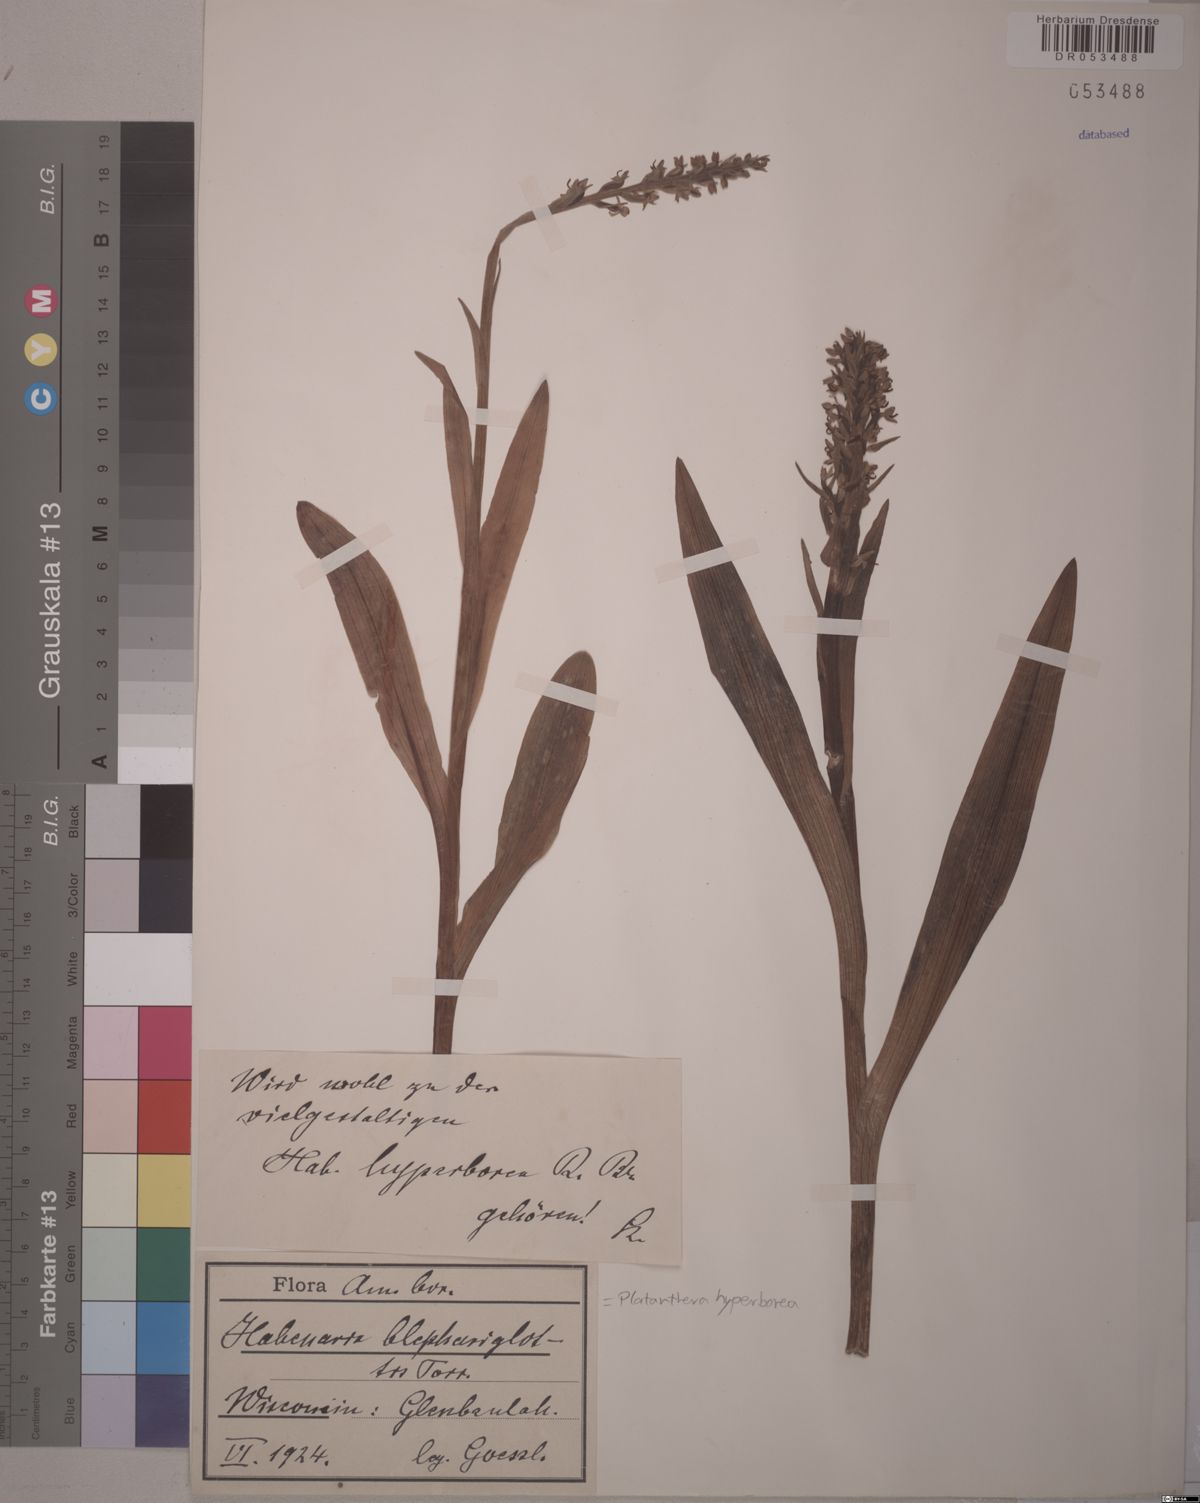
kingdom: Plantae
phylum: Tracheophyta
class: Liliopsida
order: Asparagales
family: Orchidaceae
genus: Platanthera
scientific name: Platanthera hyperborea
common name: Northern green orchid
